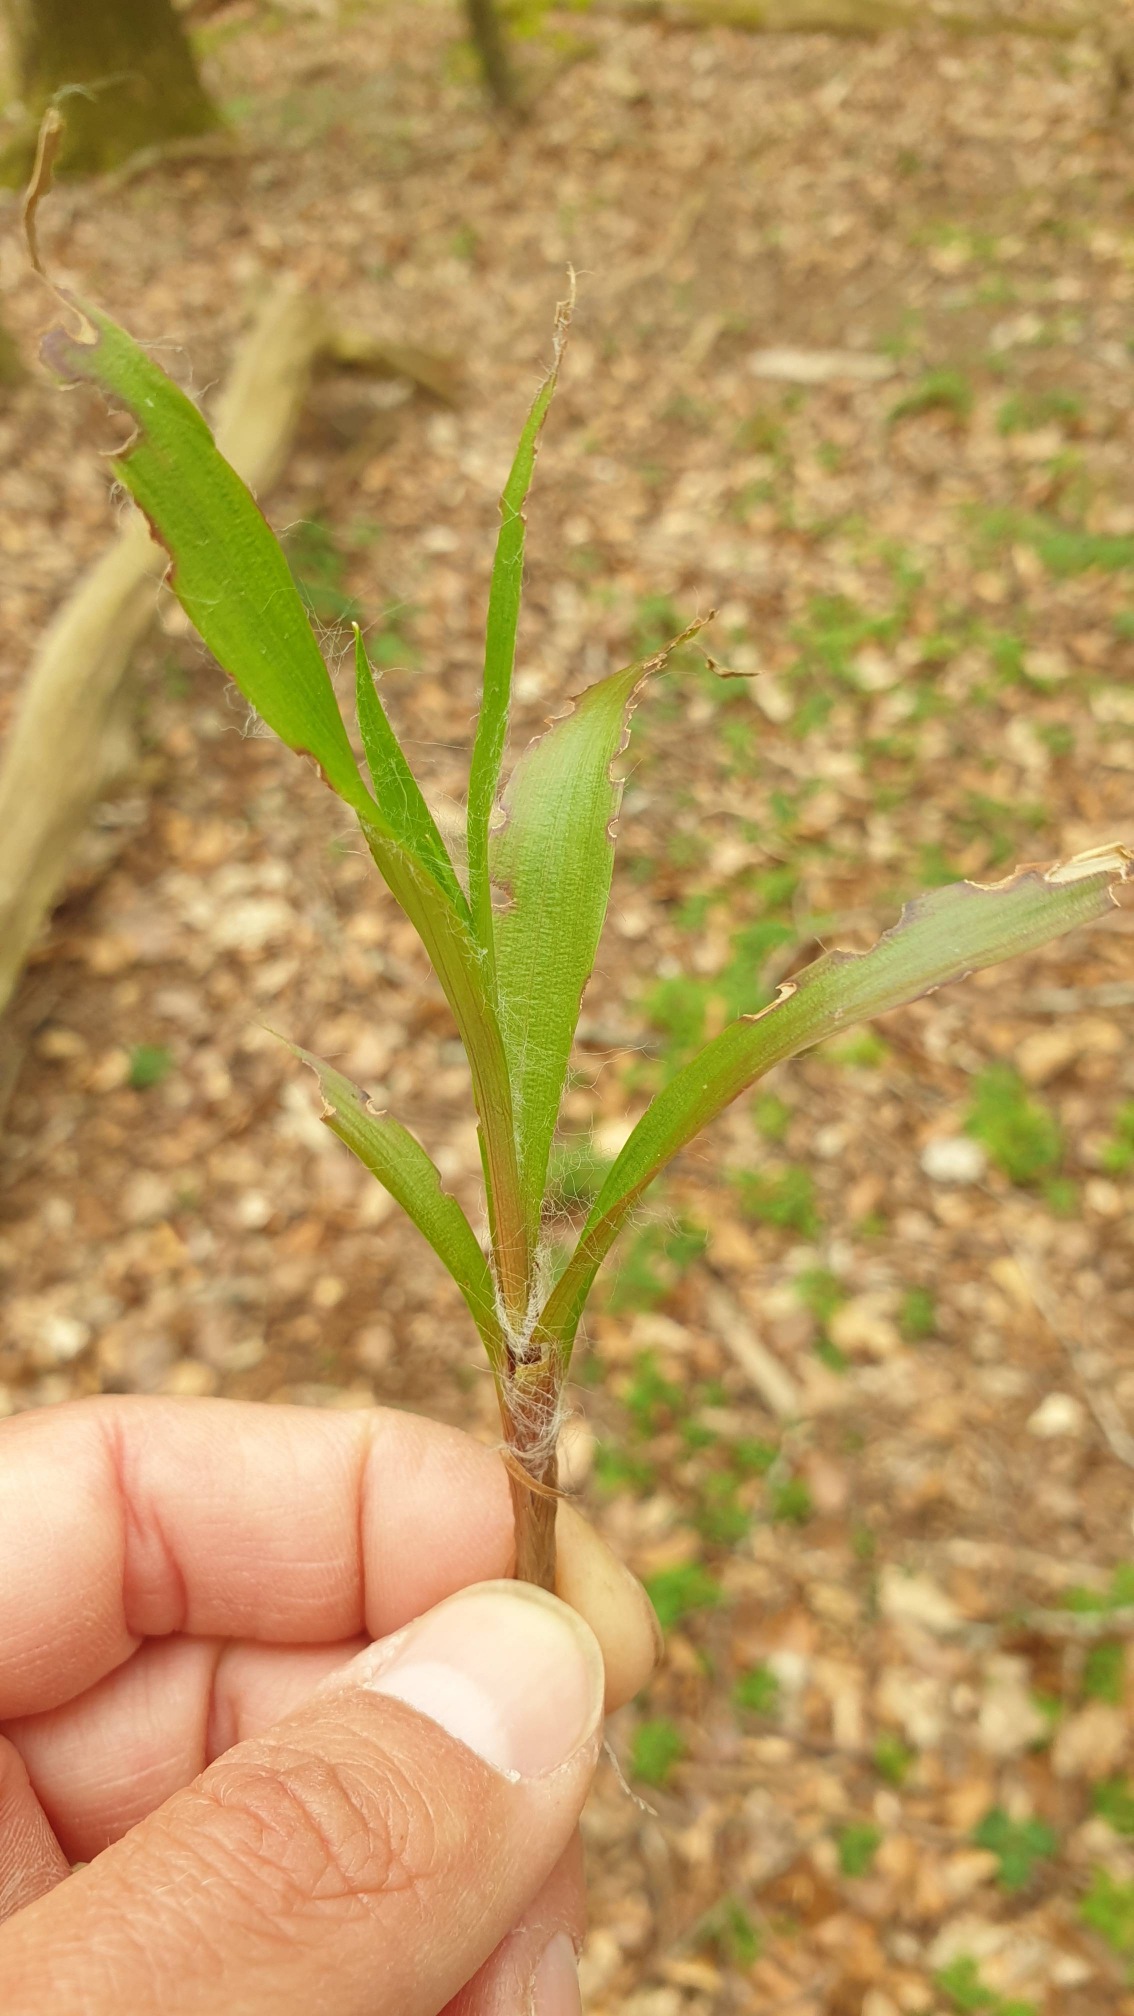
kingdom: Plantae
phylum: Tracheophyta
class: Liliopsida
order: Poales
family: Juncaceae
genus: Luzula
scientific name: Luzula pilosa
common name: Håret frytle
